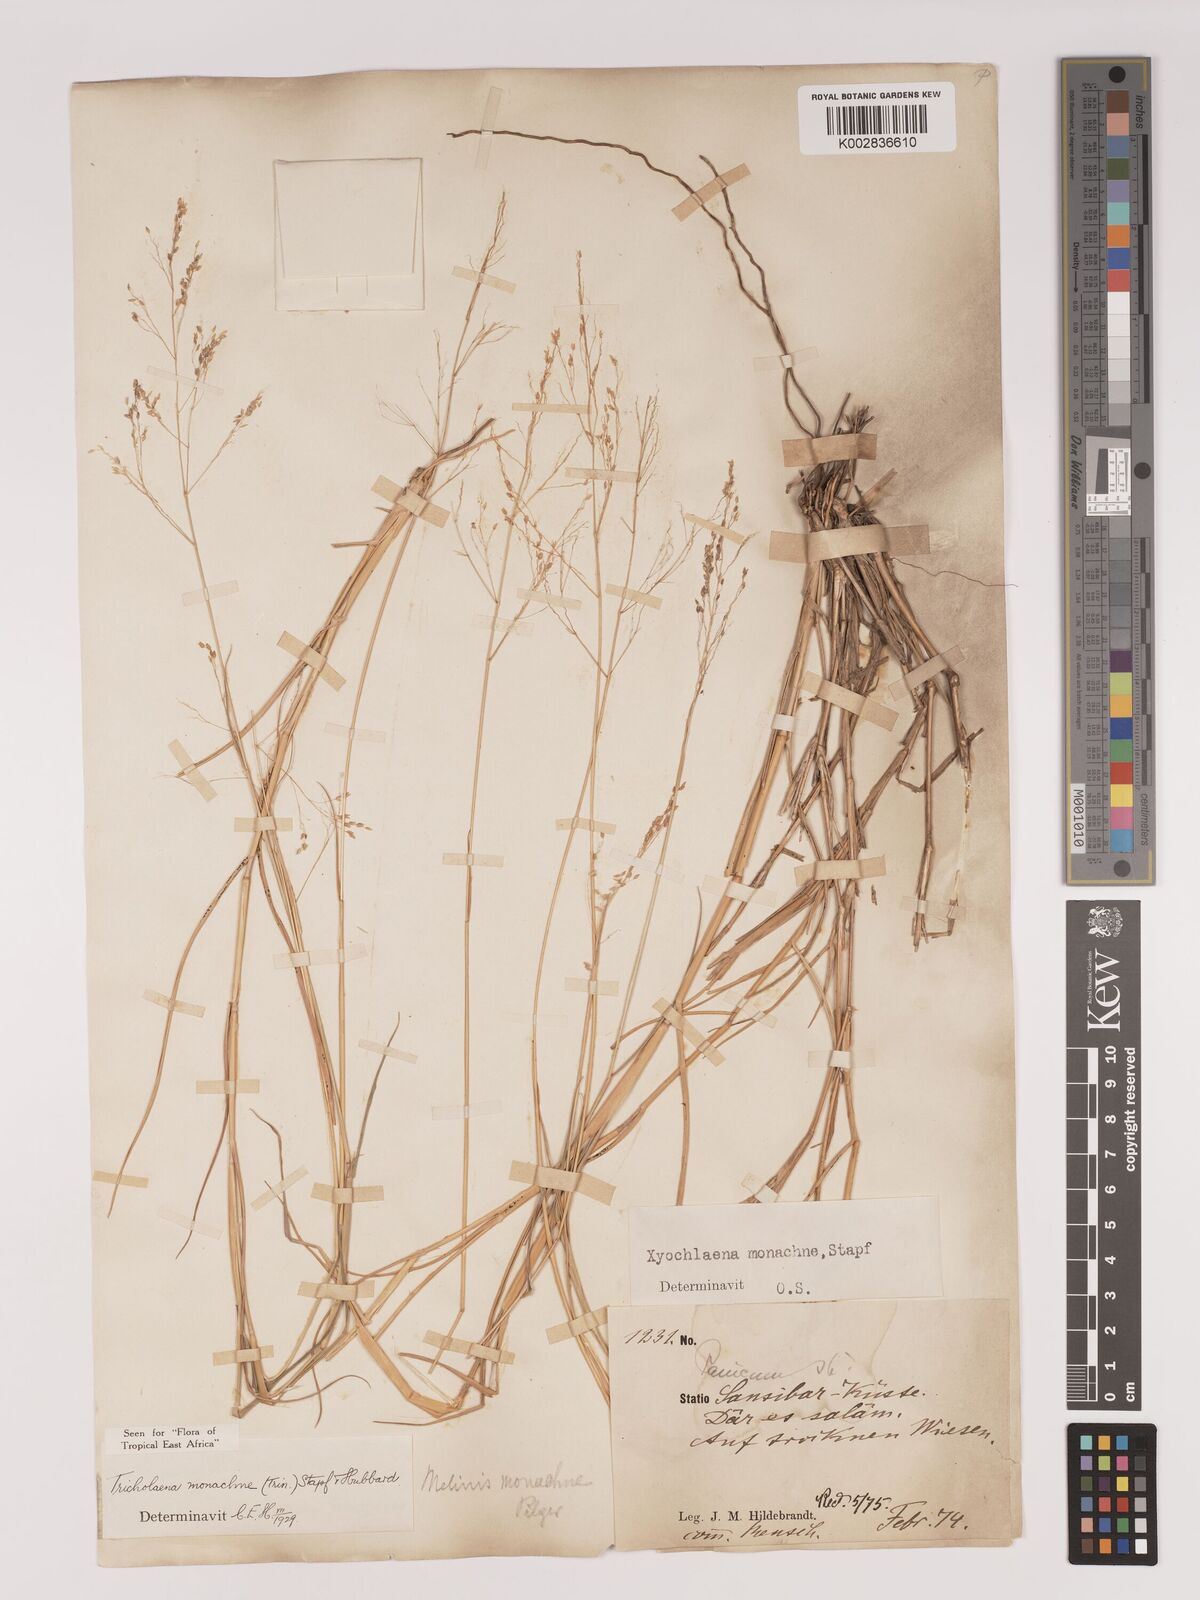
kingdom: Plantae
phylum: Tracheophyta
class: Liliopsida
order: Poales
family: Poaceae
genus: Tricholaena
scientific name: Tricholaena monachne
